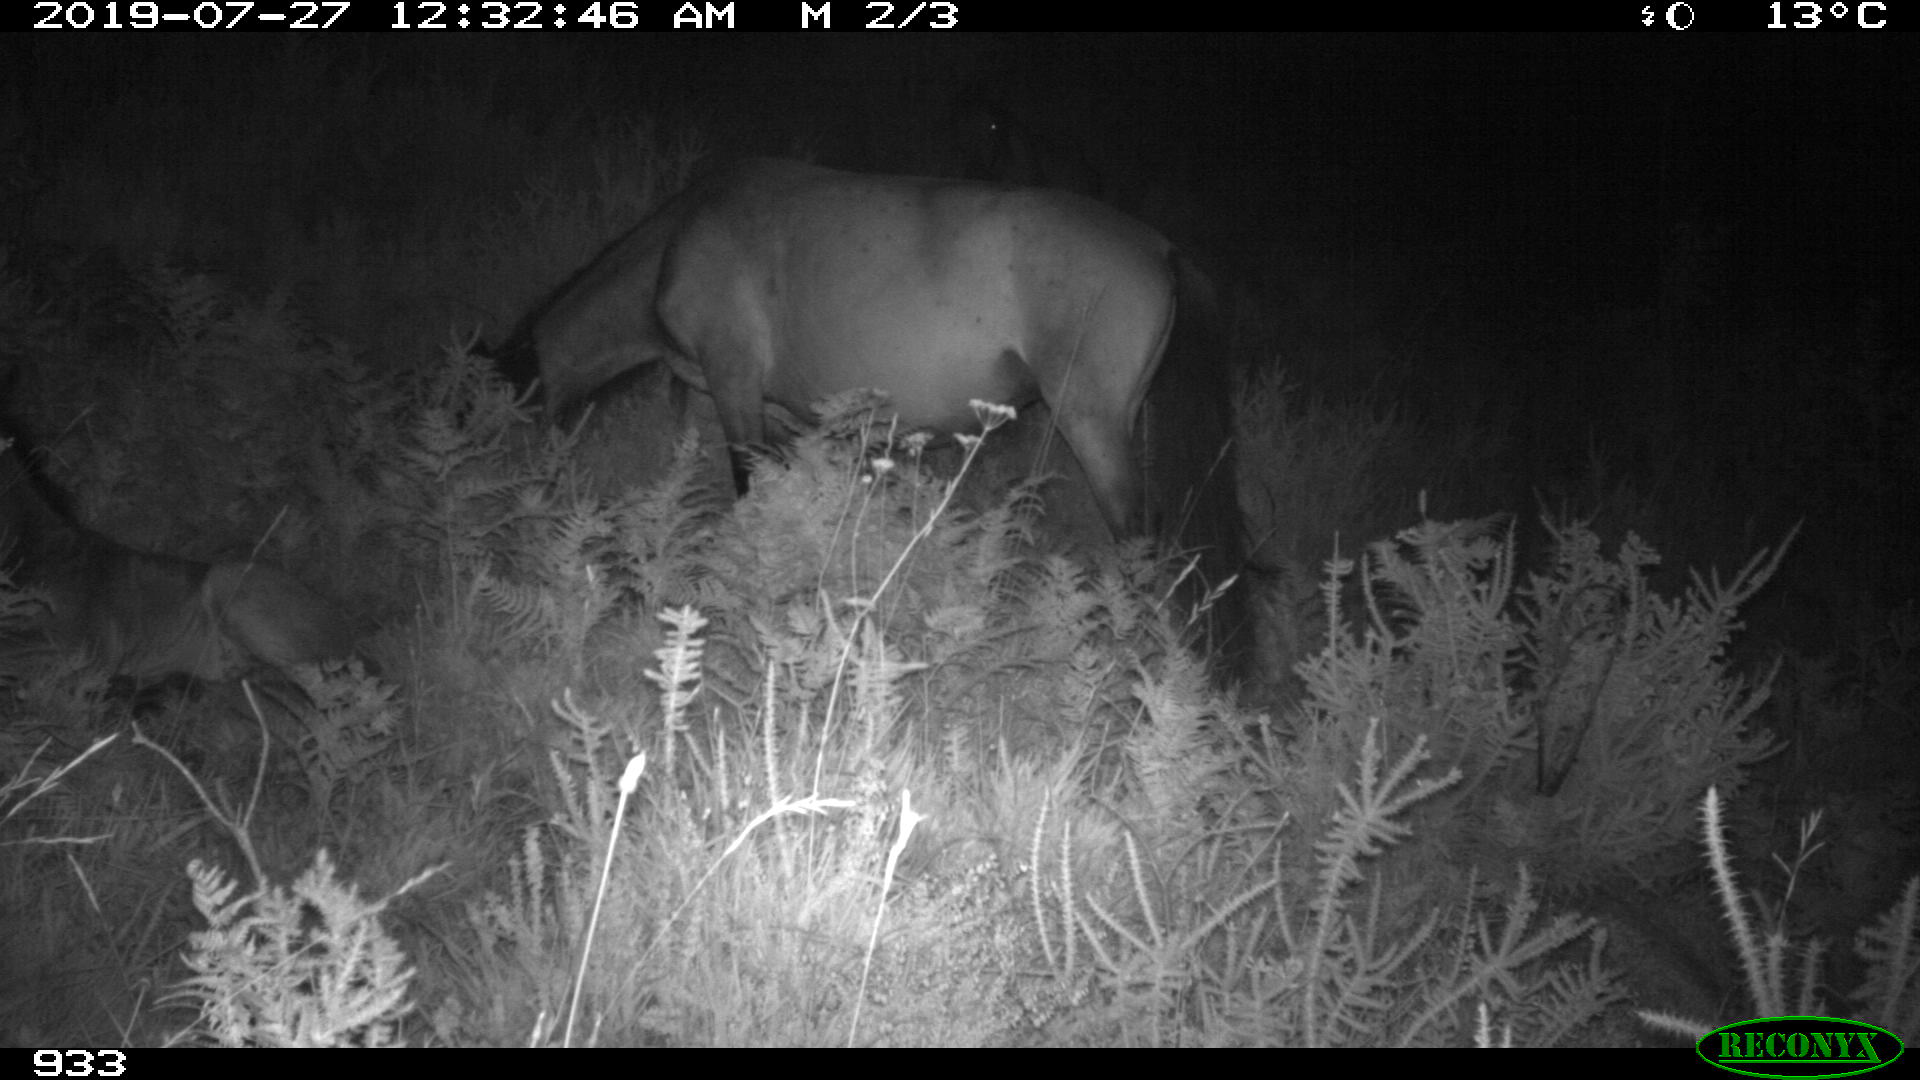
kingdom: Animalia
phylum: Chordata
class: Mammalia
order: Perissodactyla
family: Equidae
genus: Equus
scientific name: Equus caballus
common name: Horse
